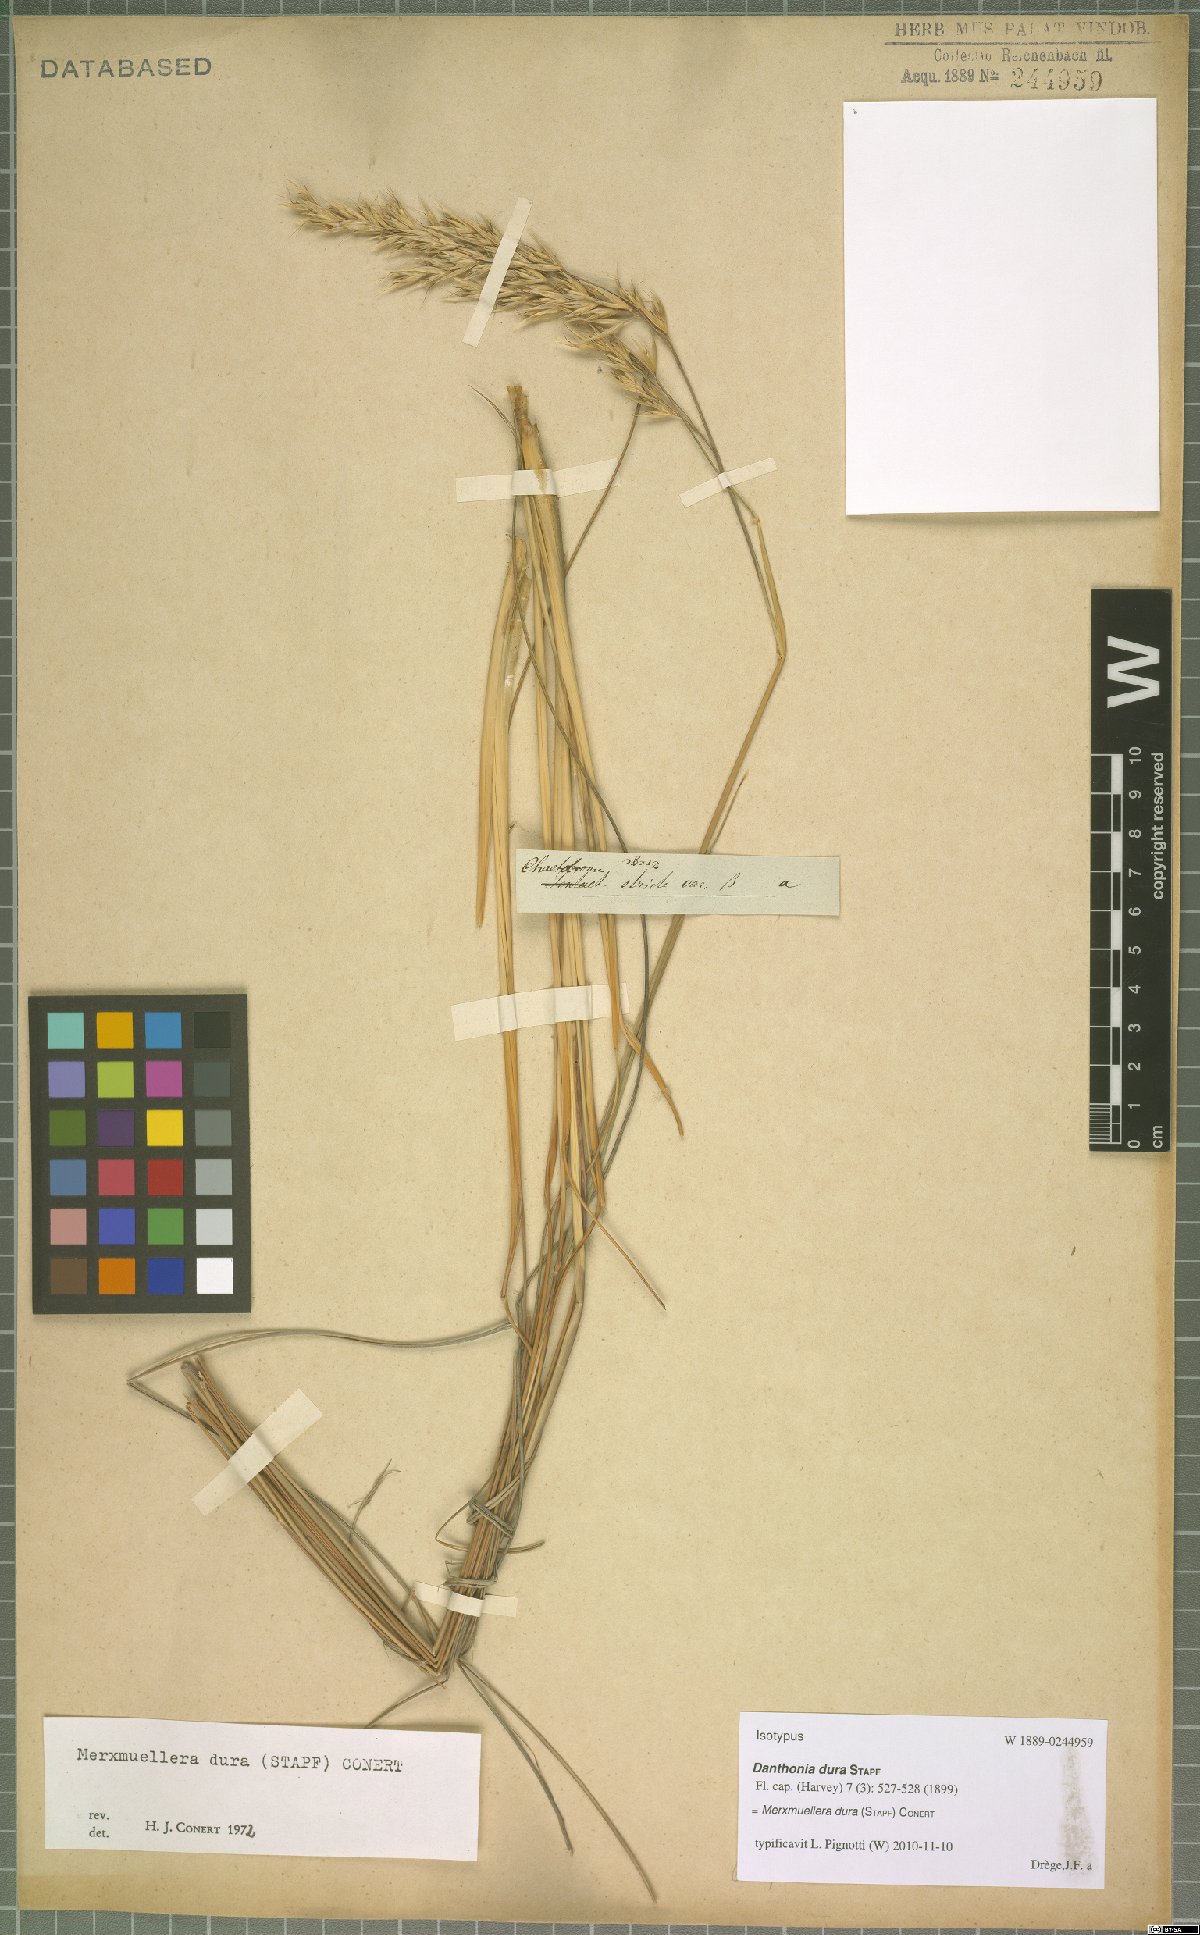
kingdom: Plantae
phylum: Tracheophyta
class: Liliopsida
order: Poales
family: Poaceae
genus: Tenaxia
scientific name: Tenaxia dura
